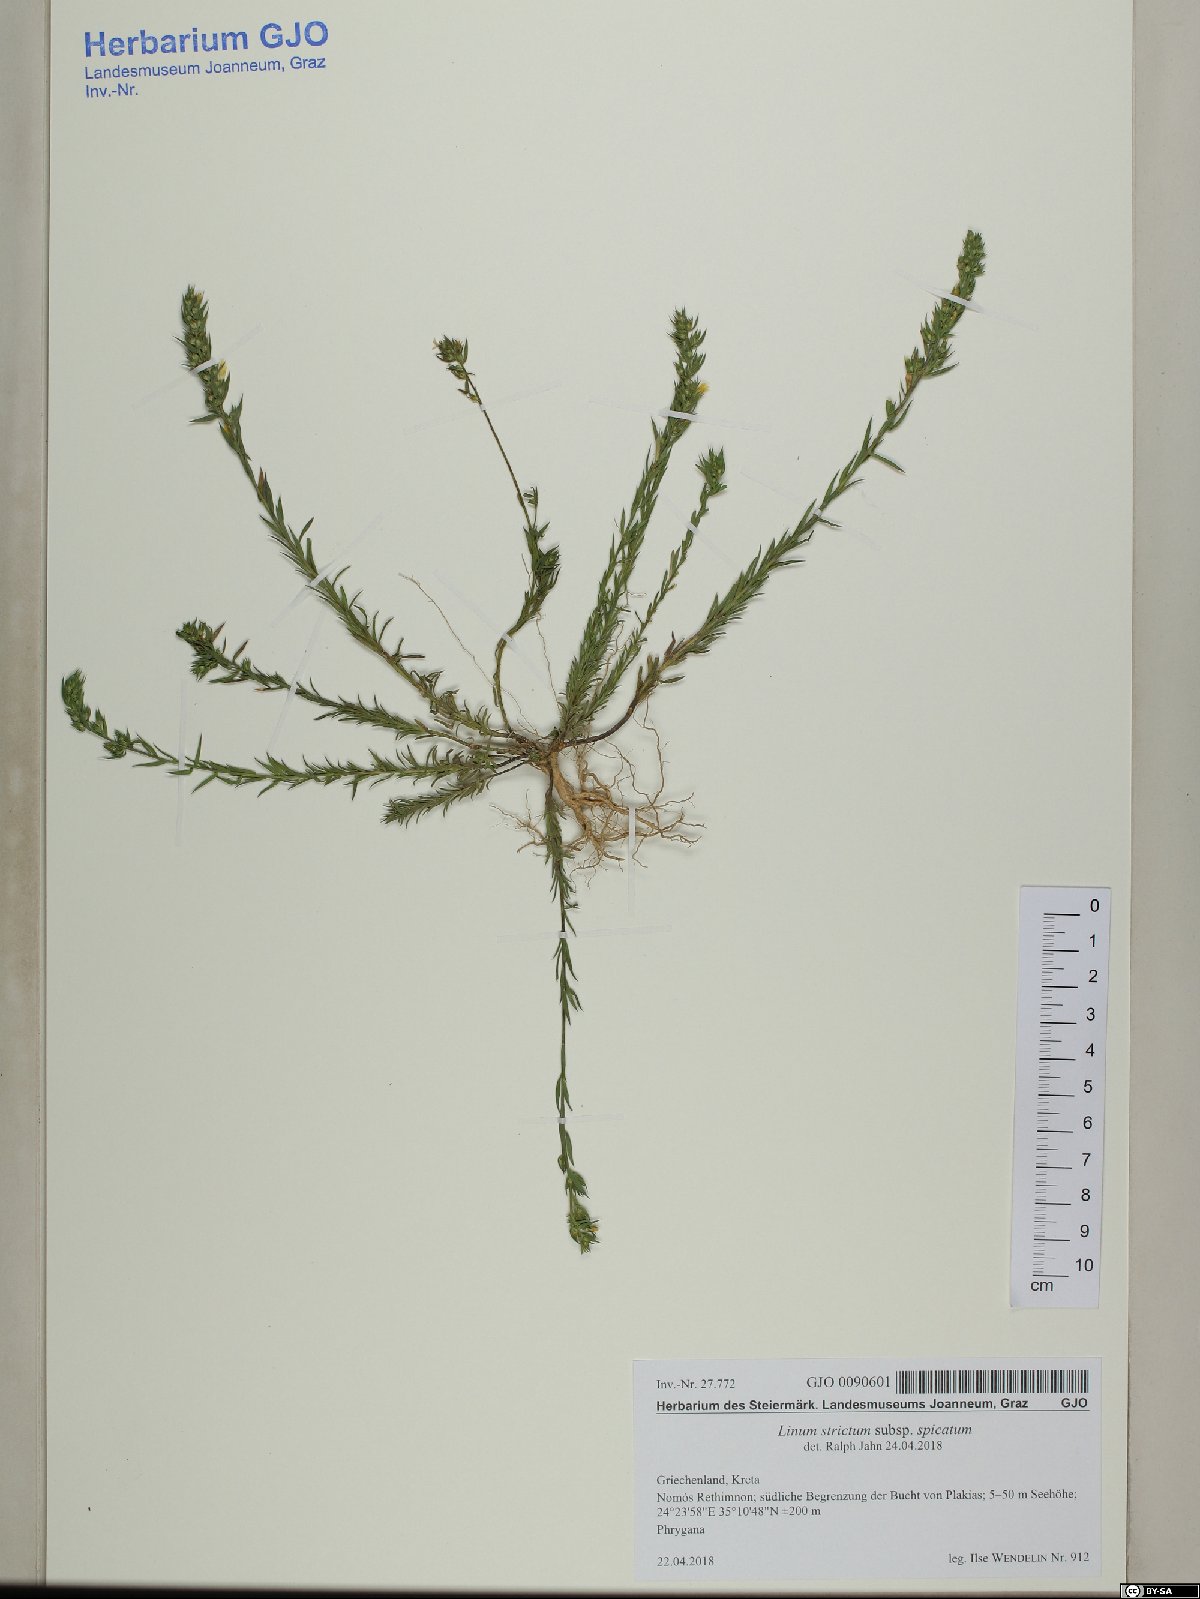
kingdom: Plantae
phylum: Tracheophyta
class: Magnoliopsida
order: Malpighiales
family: Linaceae
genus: Linum
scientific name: Linum strictum
